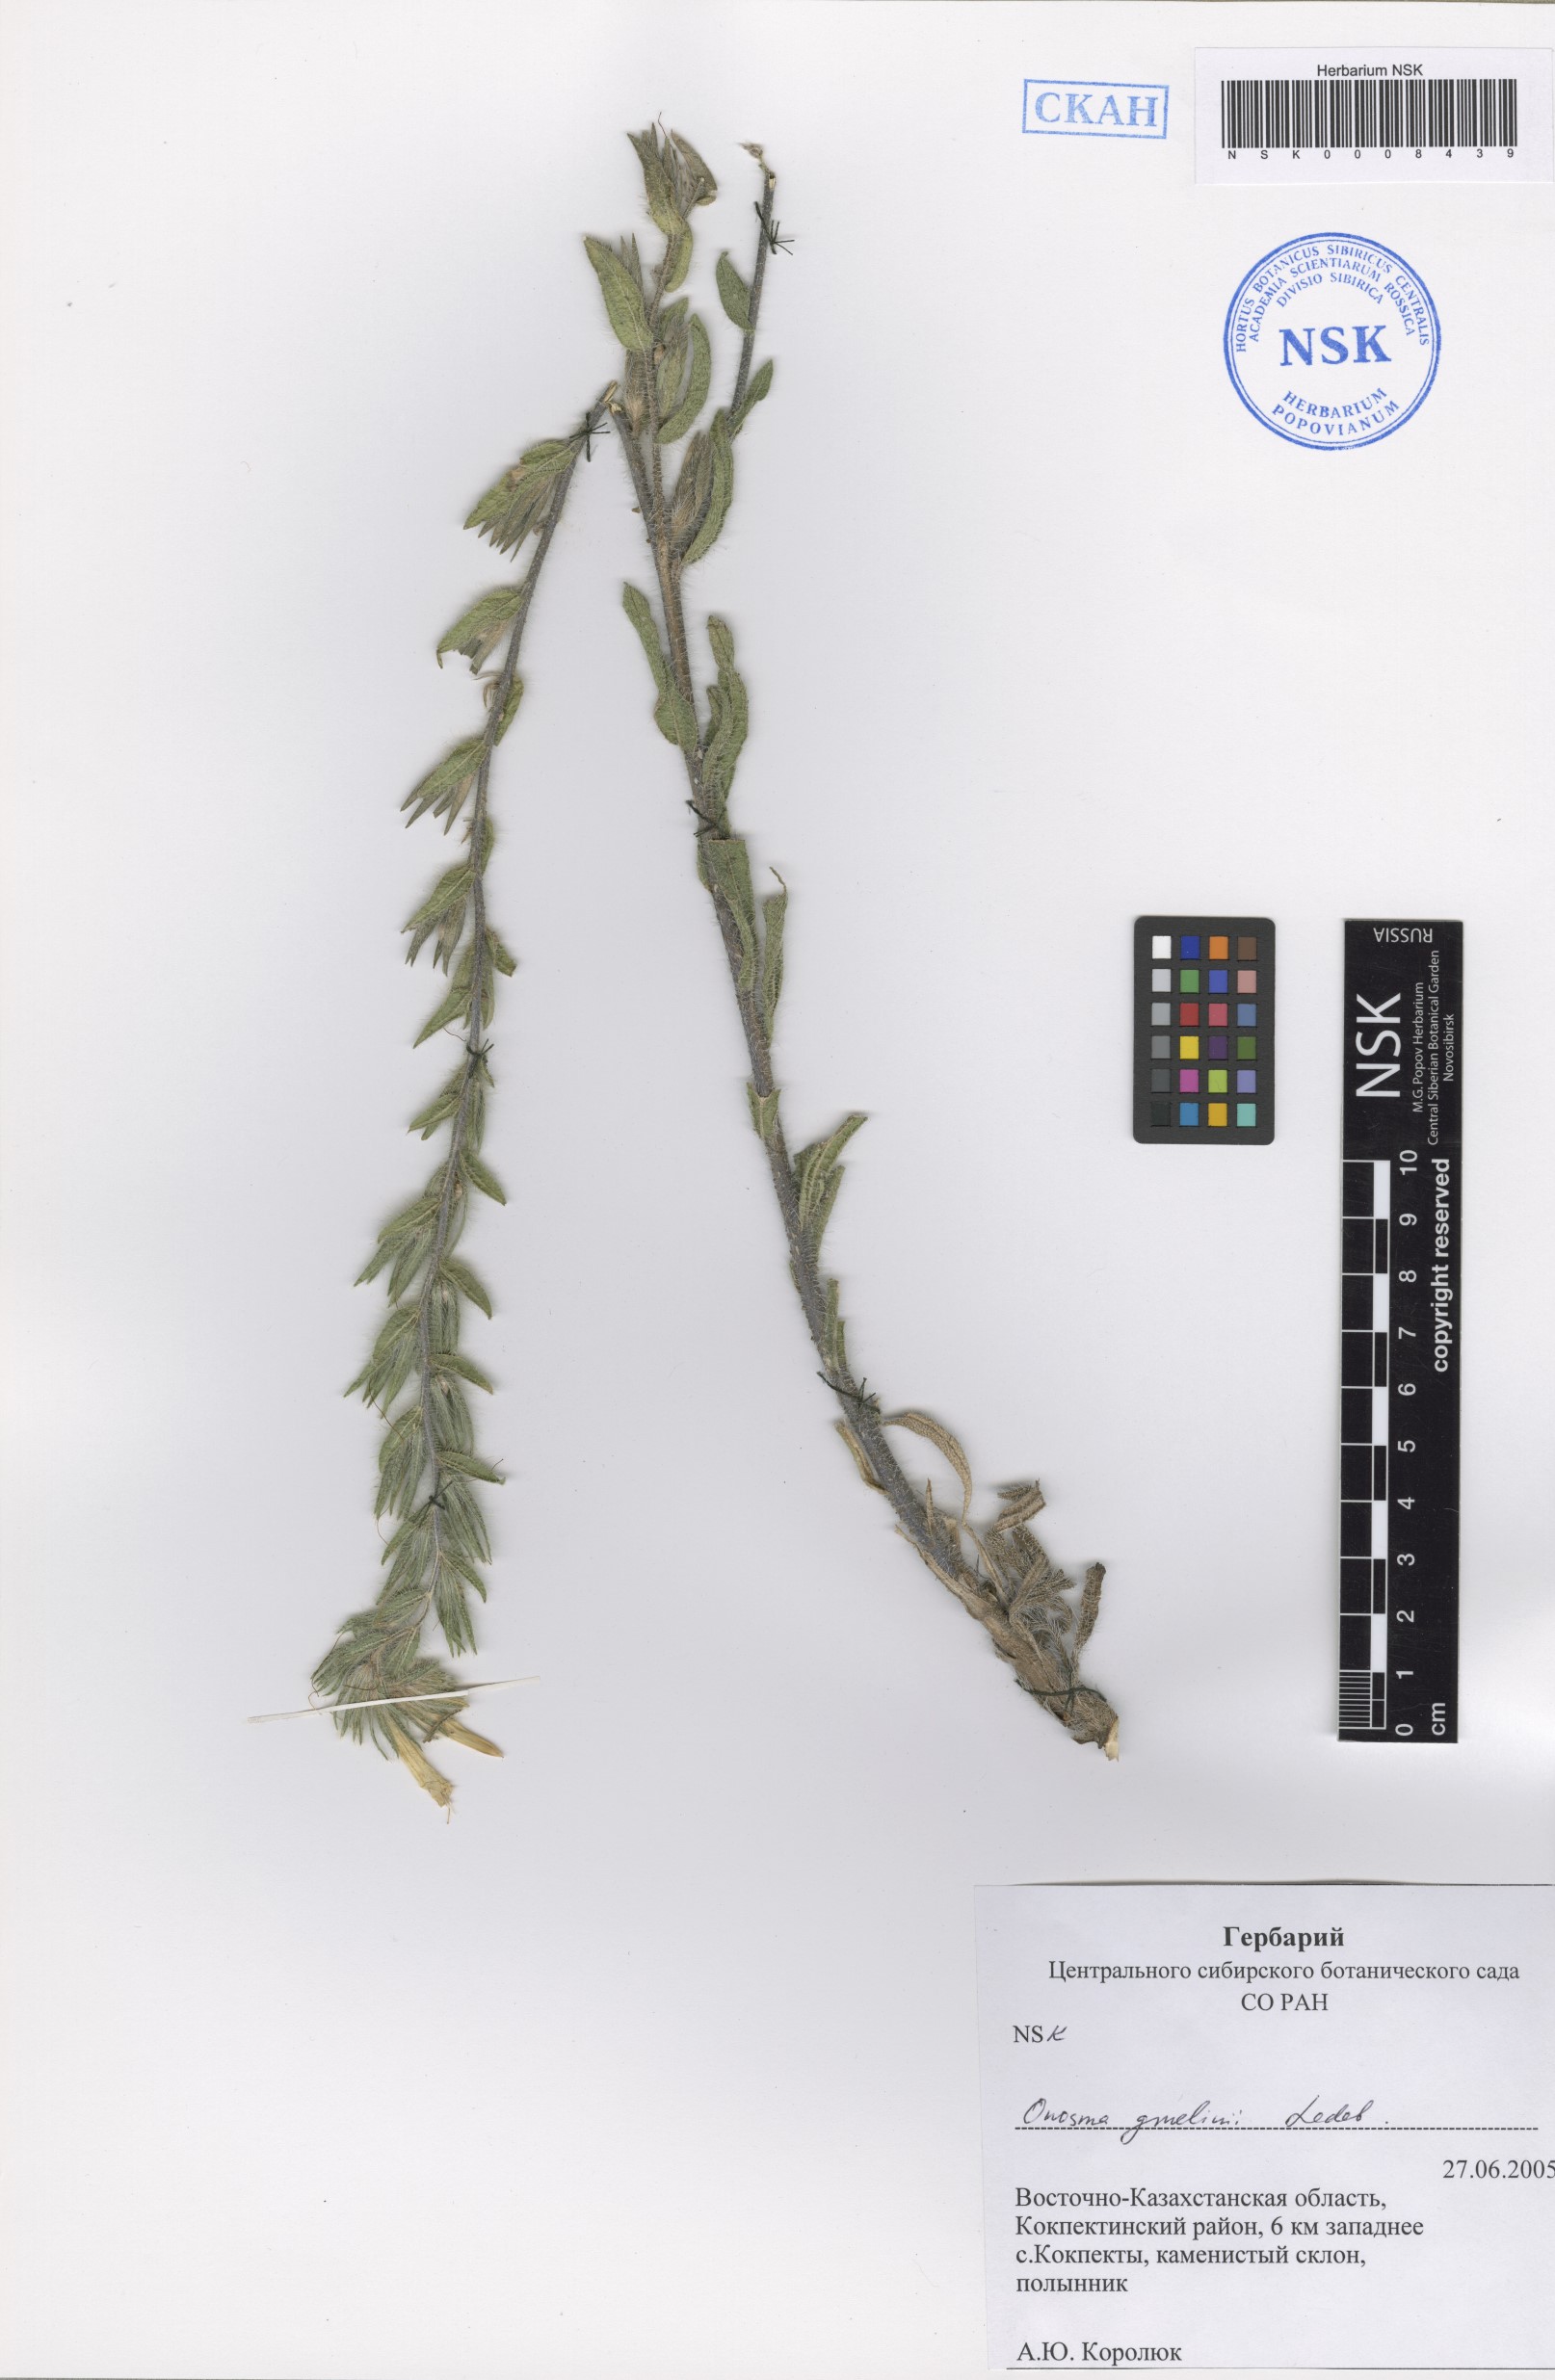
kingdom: Plantae
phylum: Tracheophyta
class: Magnoliopsida
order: Boraginales
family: Boraginaceae
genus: Onosma
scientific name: Onosma gmelinii
